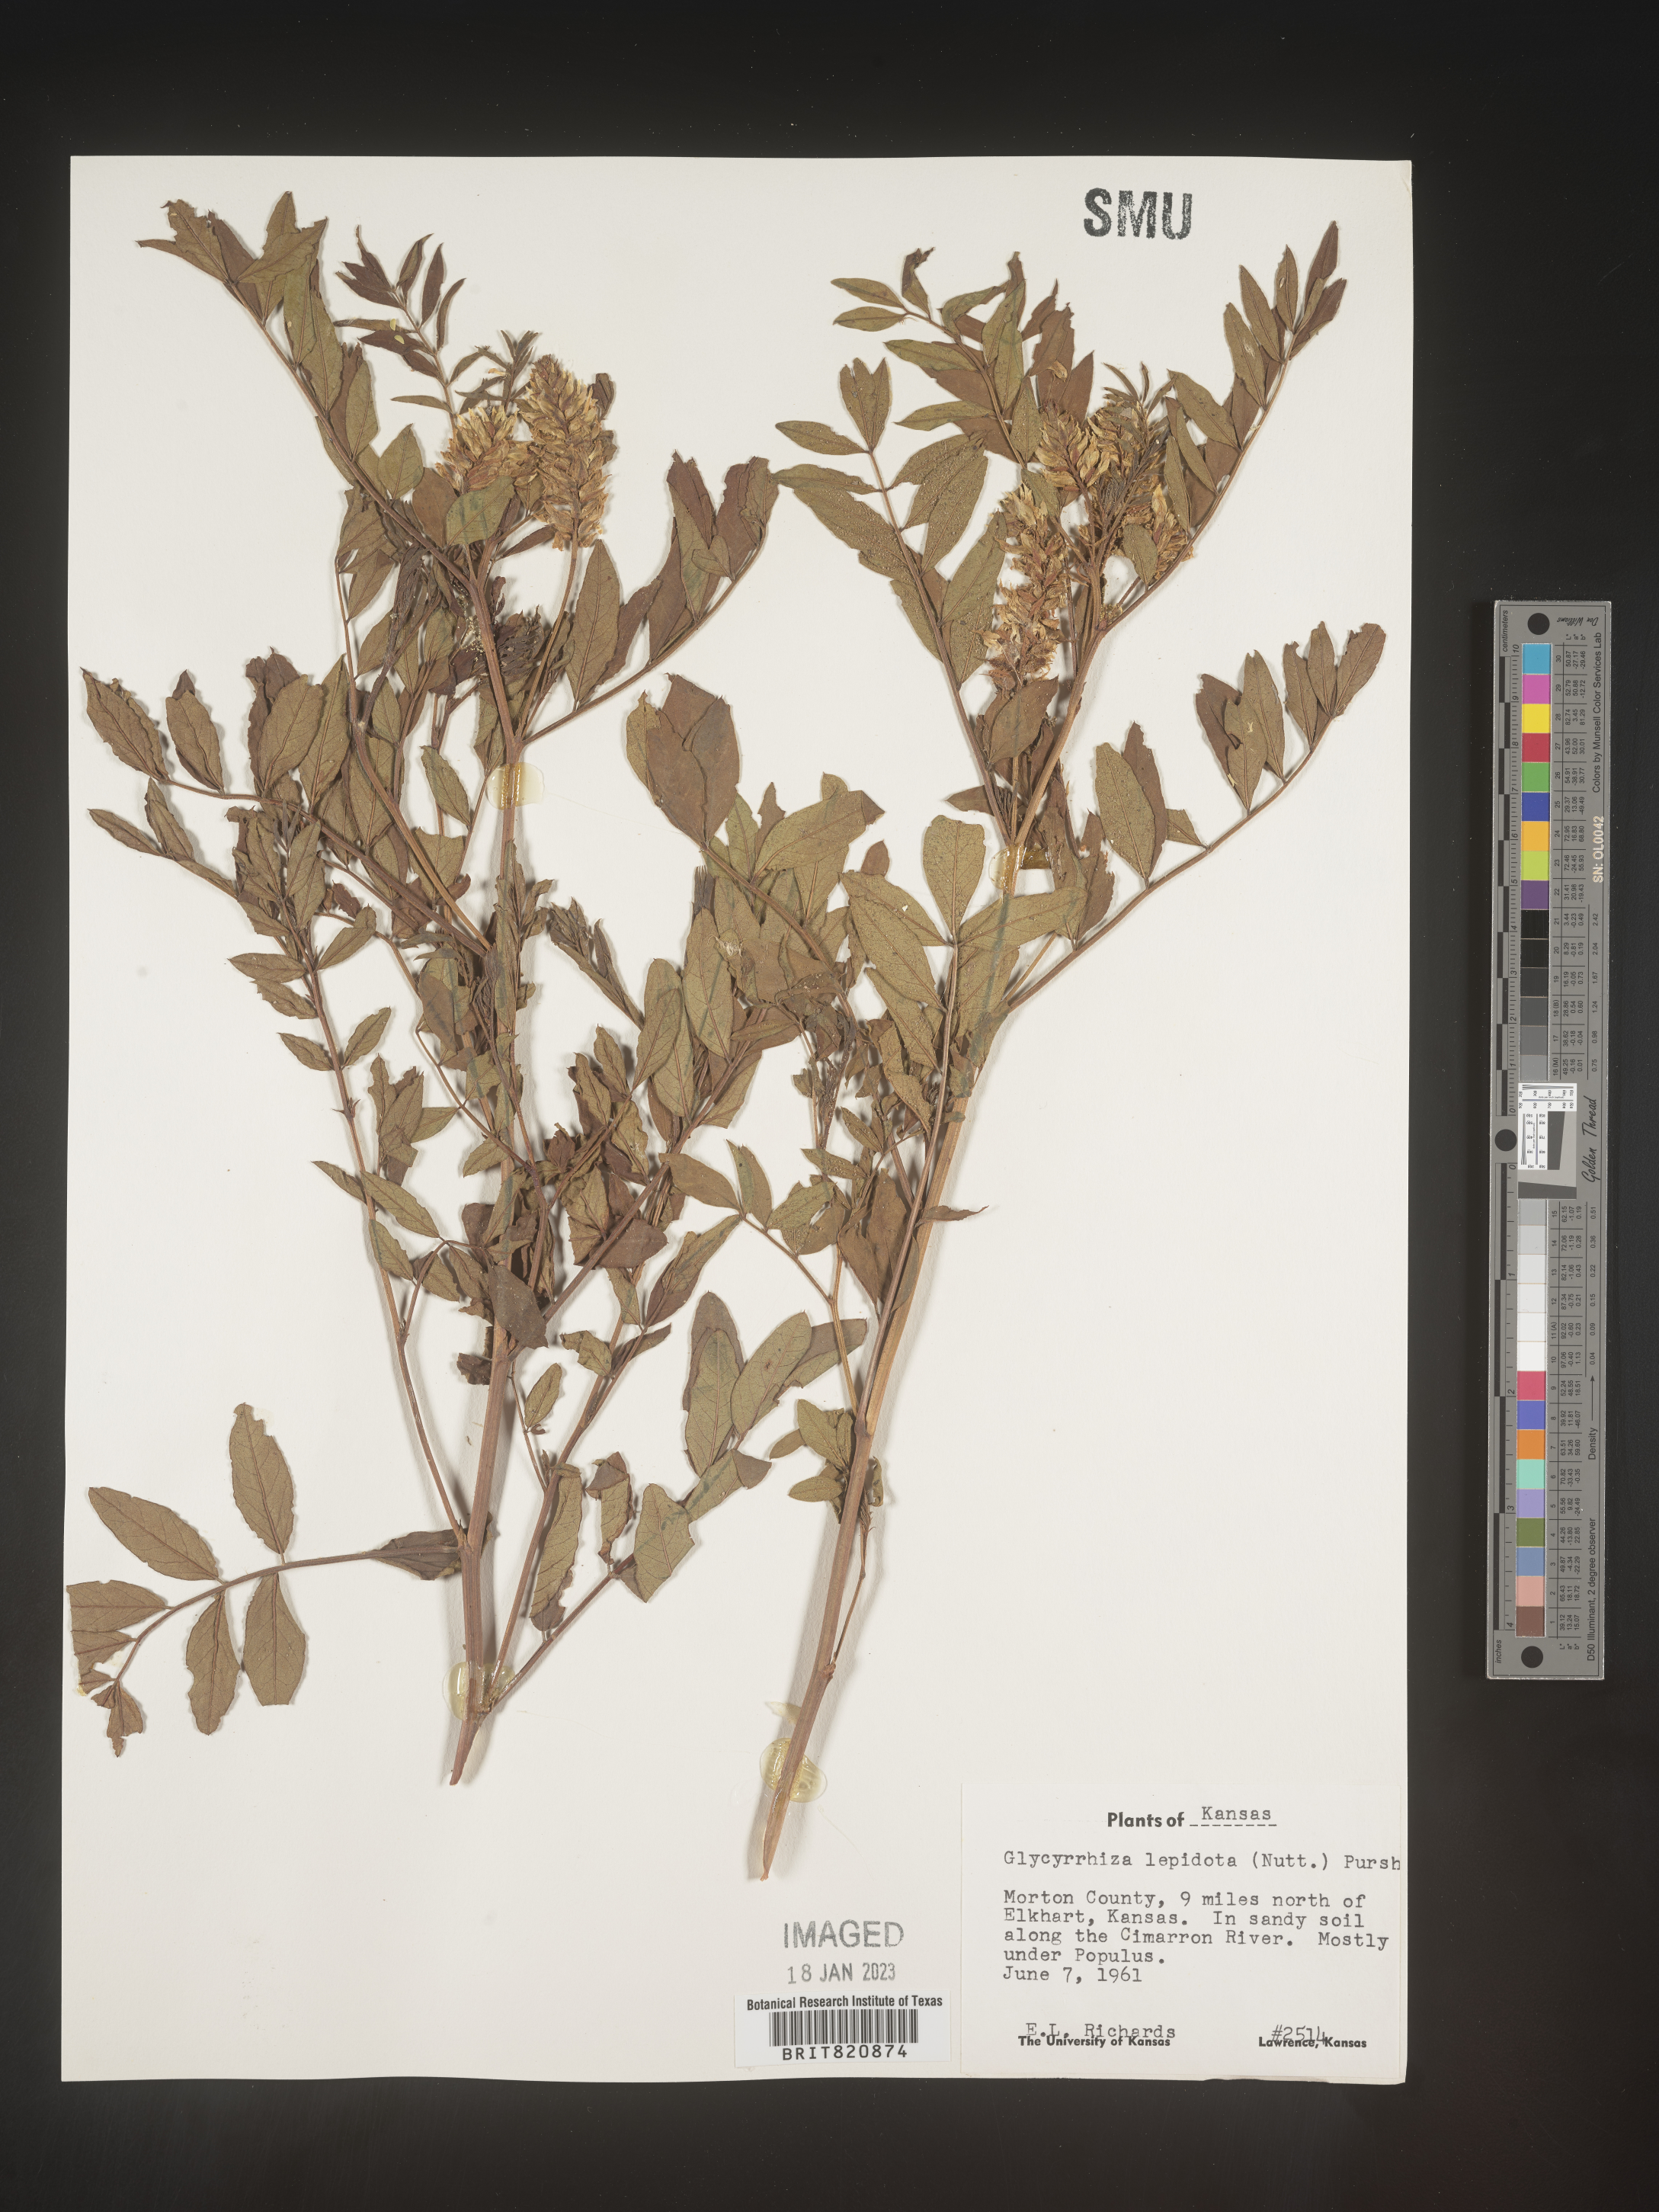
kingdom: Plantae
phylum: Tracheophyta
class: Magnoliopsida
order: Fabales
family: Fabaceae
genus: Glycyrrhiza
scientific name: Glycyrrhiza lepidota
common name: American liquorice
